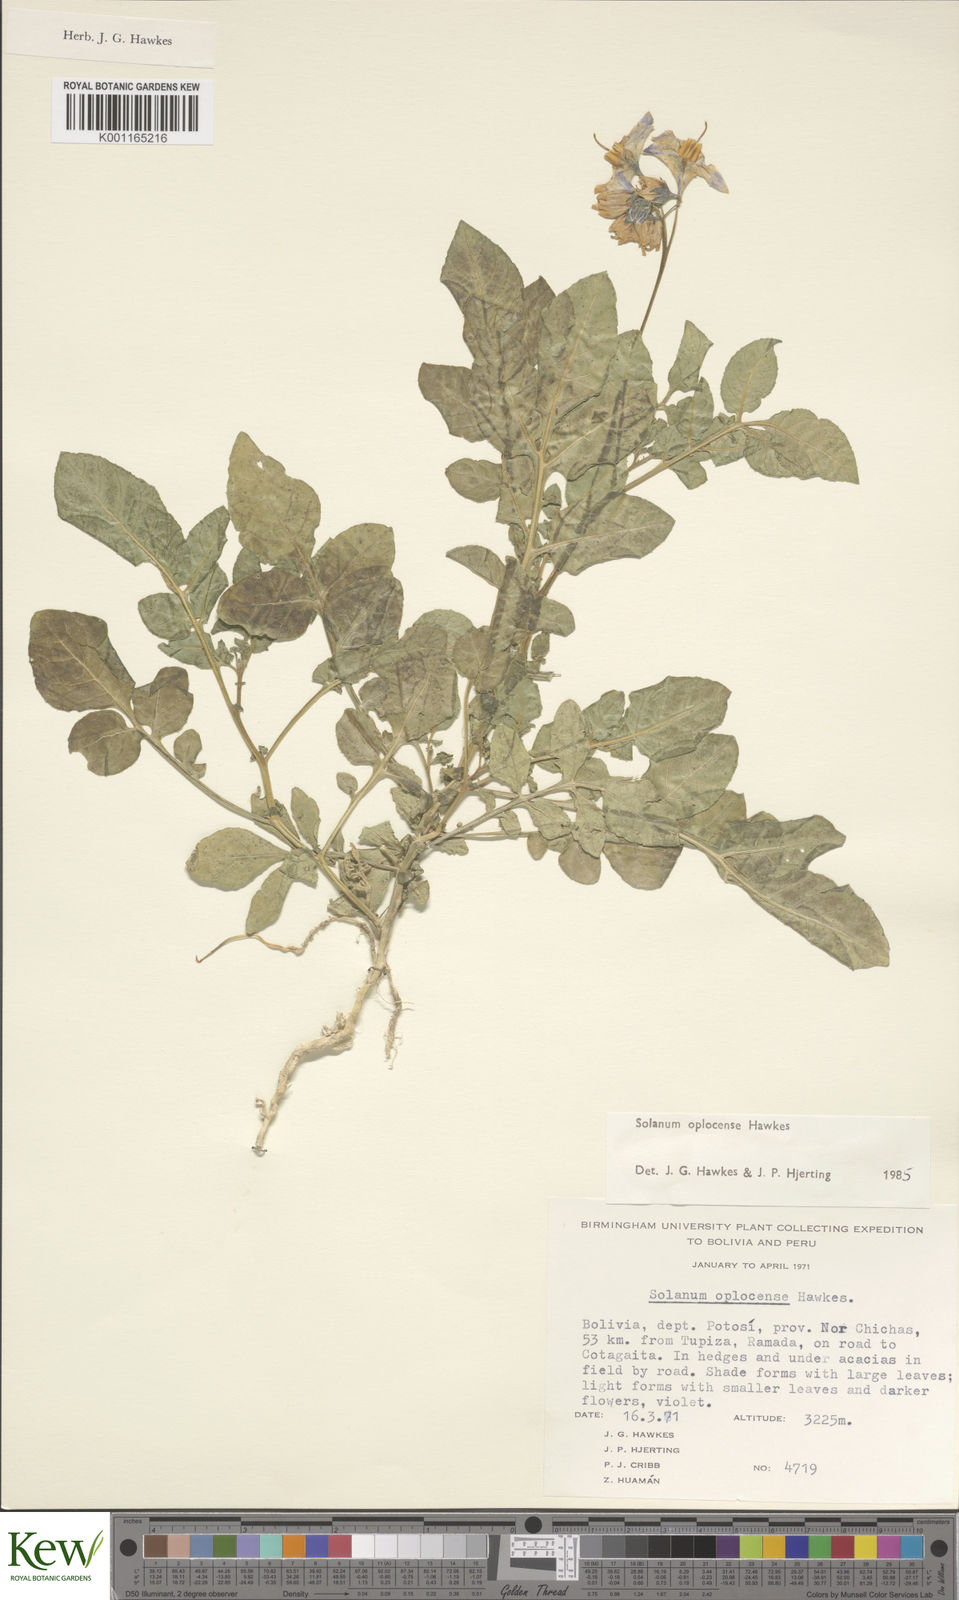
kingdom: Plantae
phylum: Tracheophyta
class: Magnoliopsida
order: Solanales
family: Solanaceae
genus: Solanum
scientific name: Solanum brevicaule
